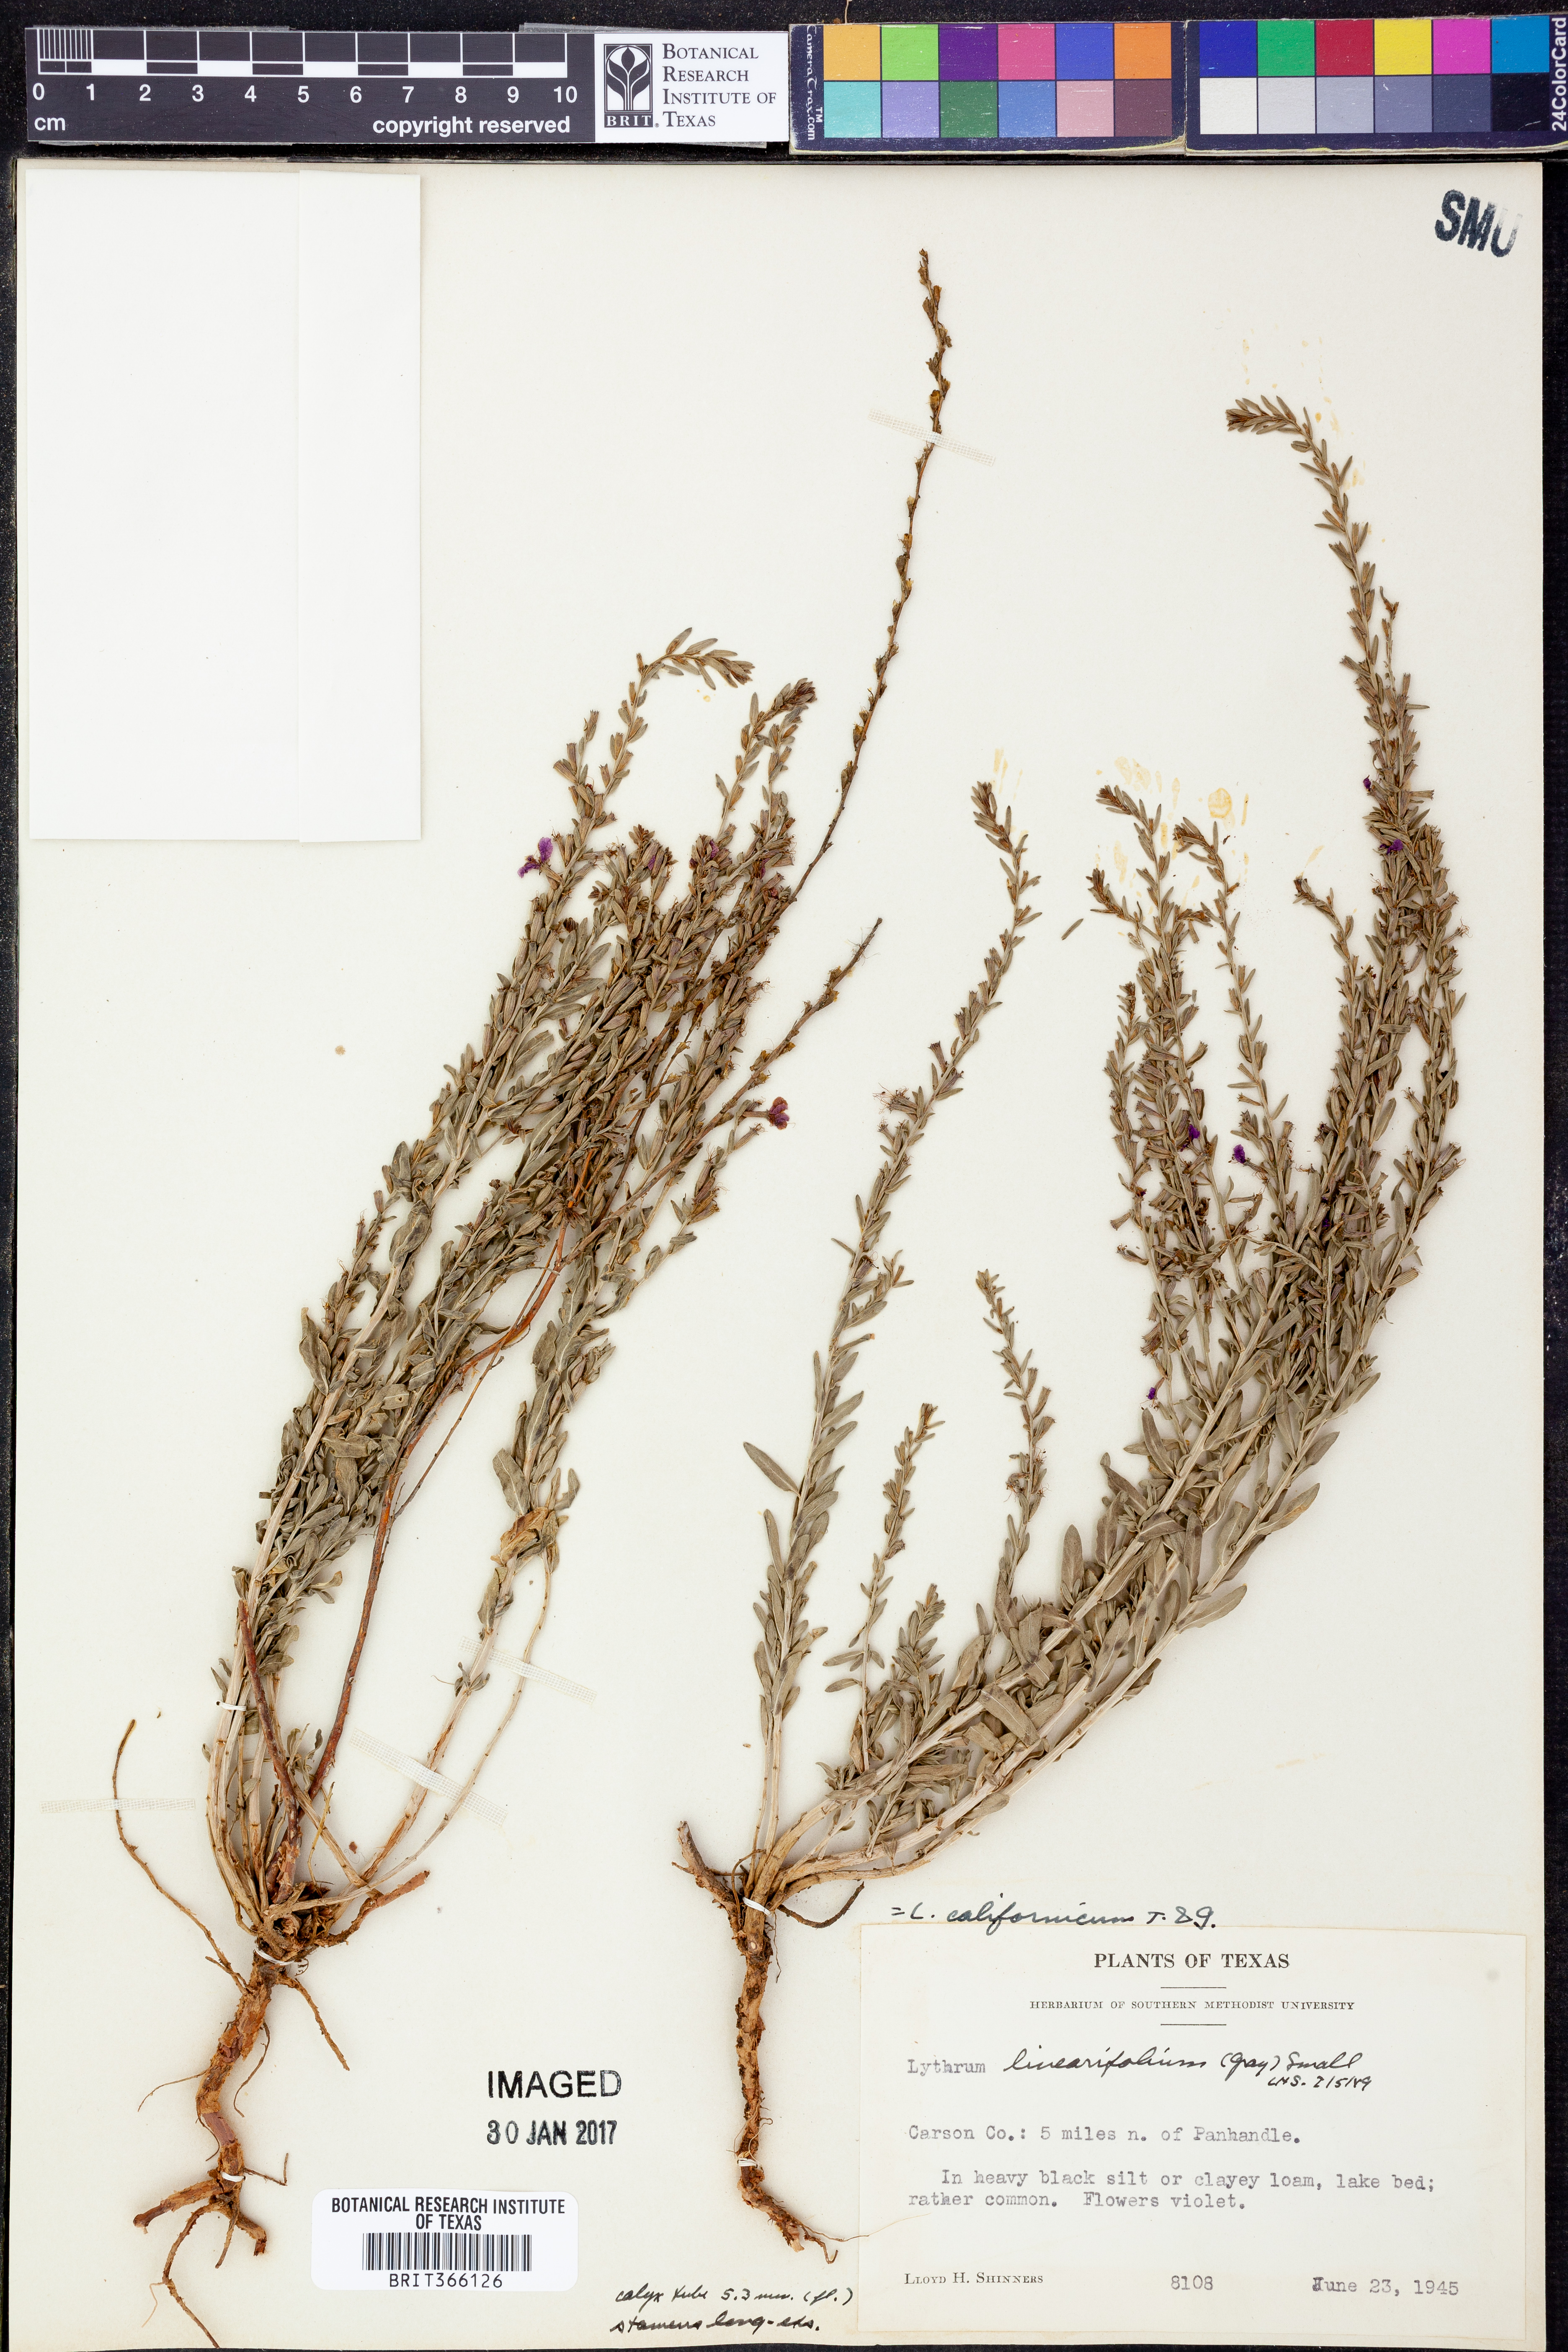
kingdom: Plantae
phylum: Tracheophyta
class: Magnoliopsida
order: Myrtales
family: Lythraceae
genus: Lythrum
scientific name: Lythrum californicum
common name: California loosestrife
